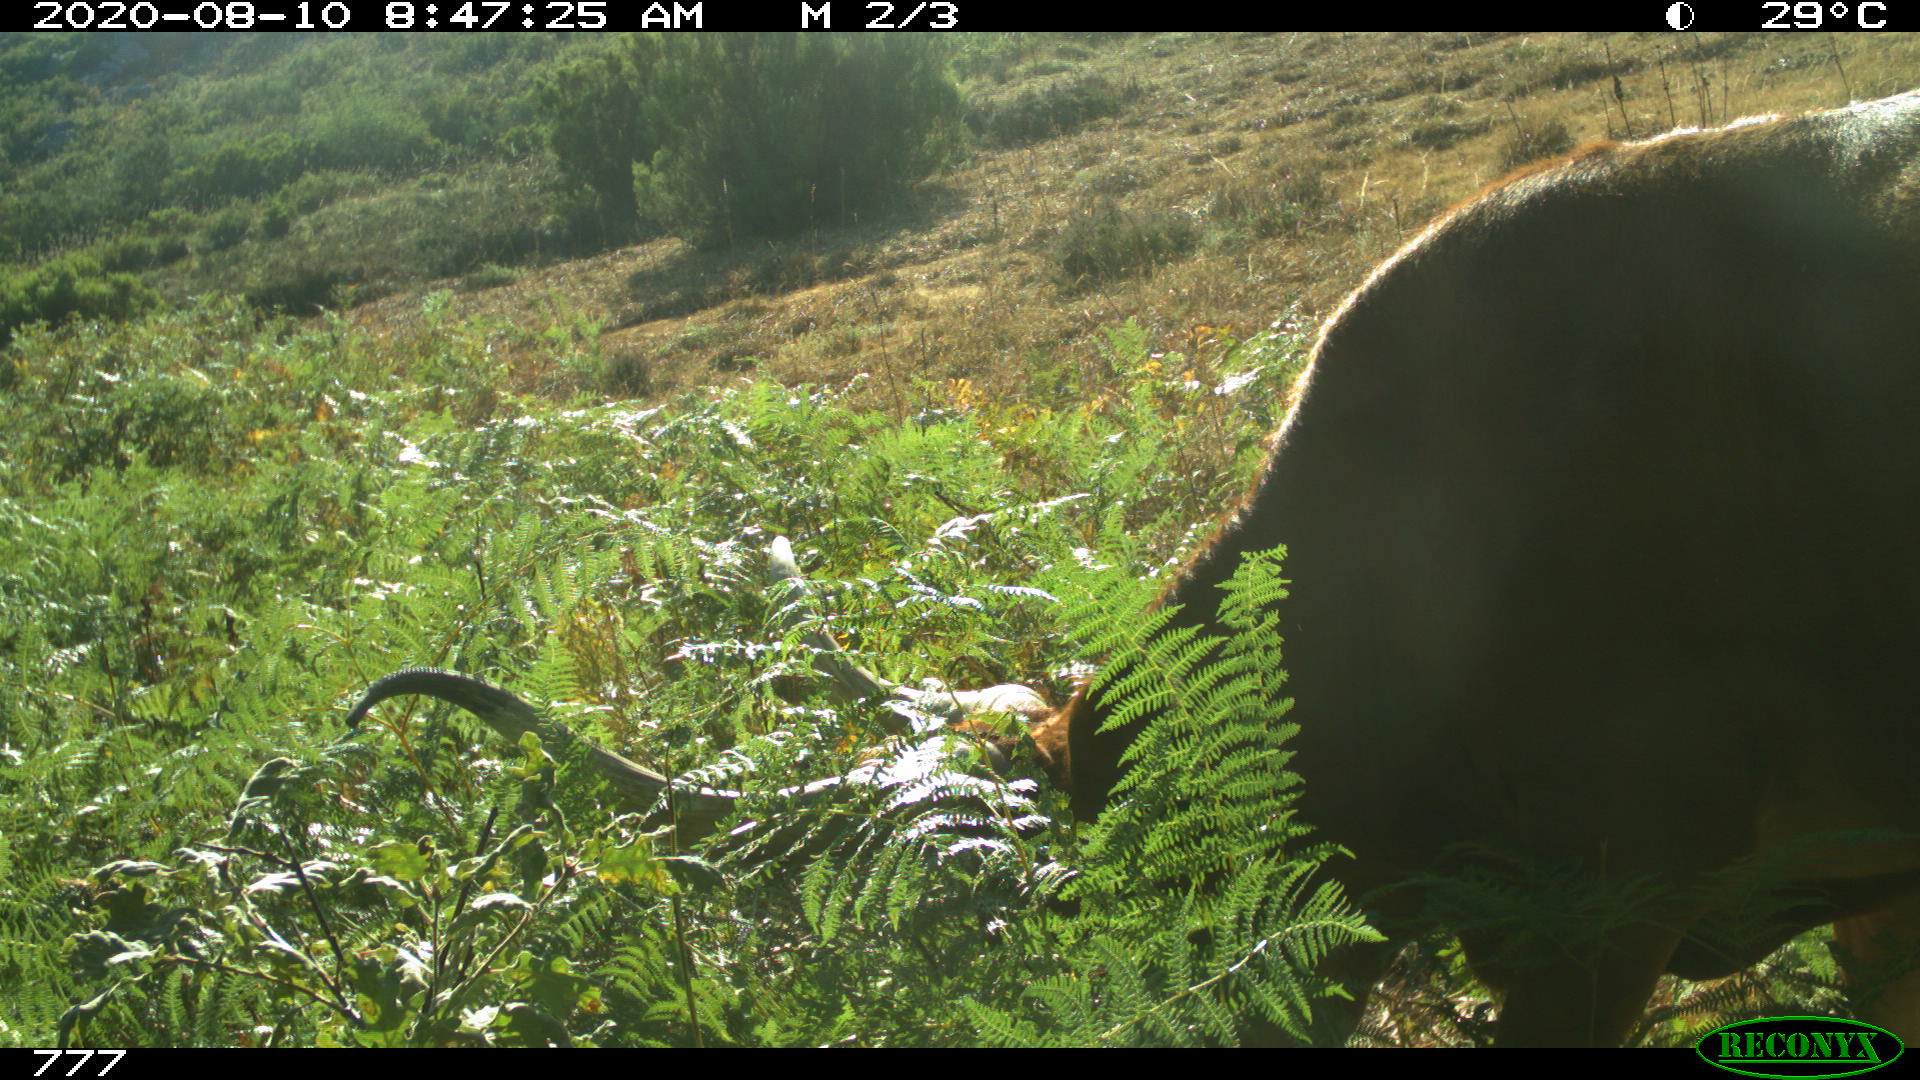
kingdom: Animalia
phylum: Chordata
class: Mammalia
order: Artiodactyla
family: Bovidae
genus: Bos
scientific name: Bos taurus
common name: Domesticated cattle
